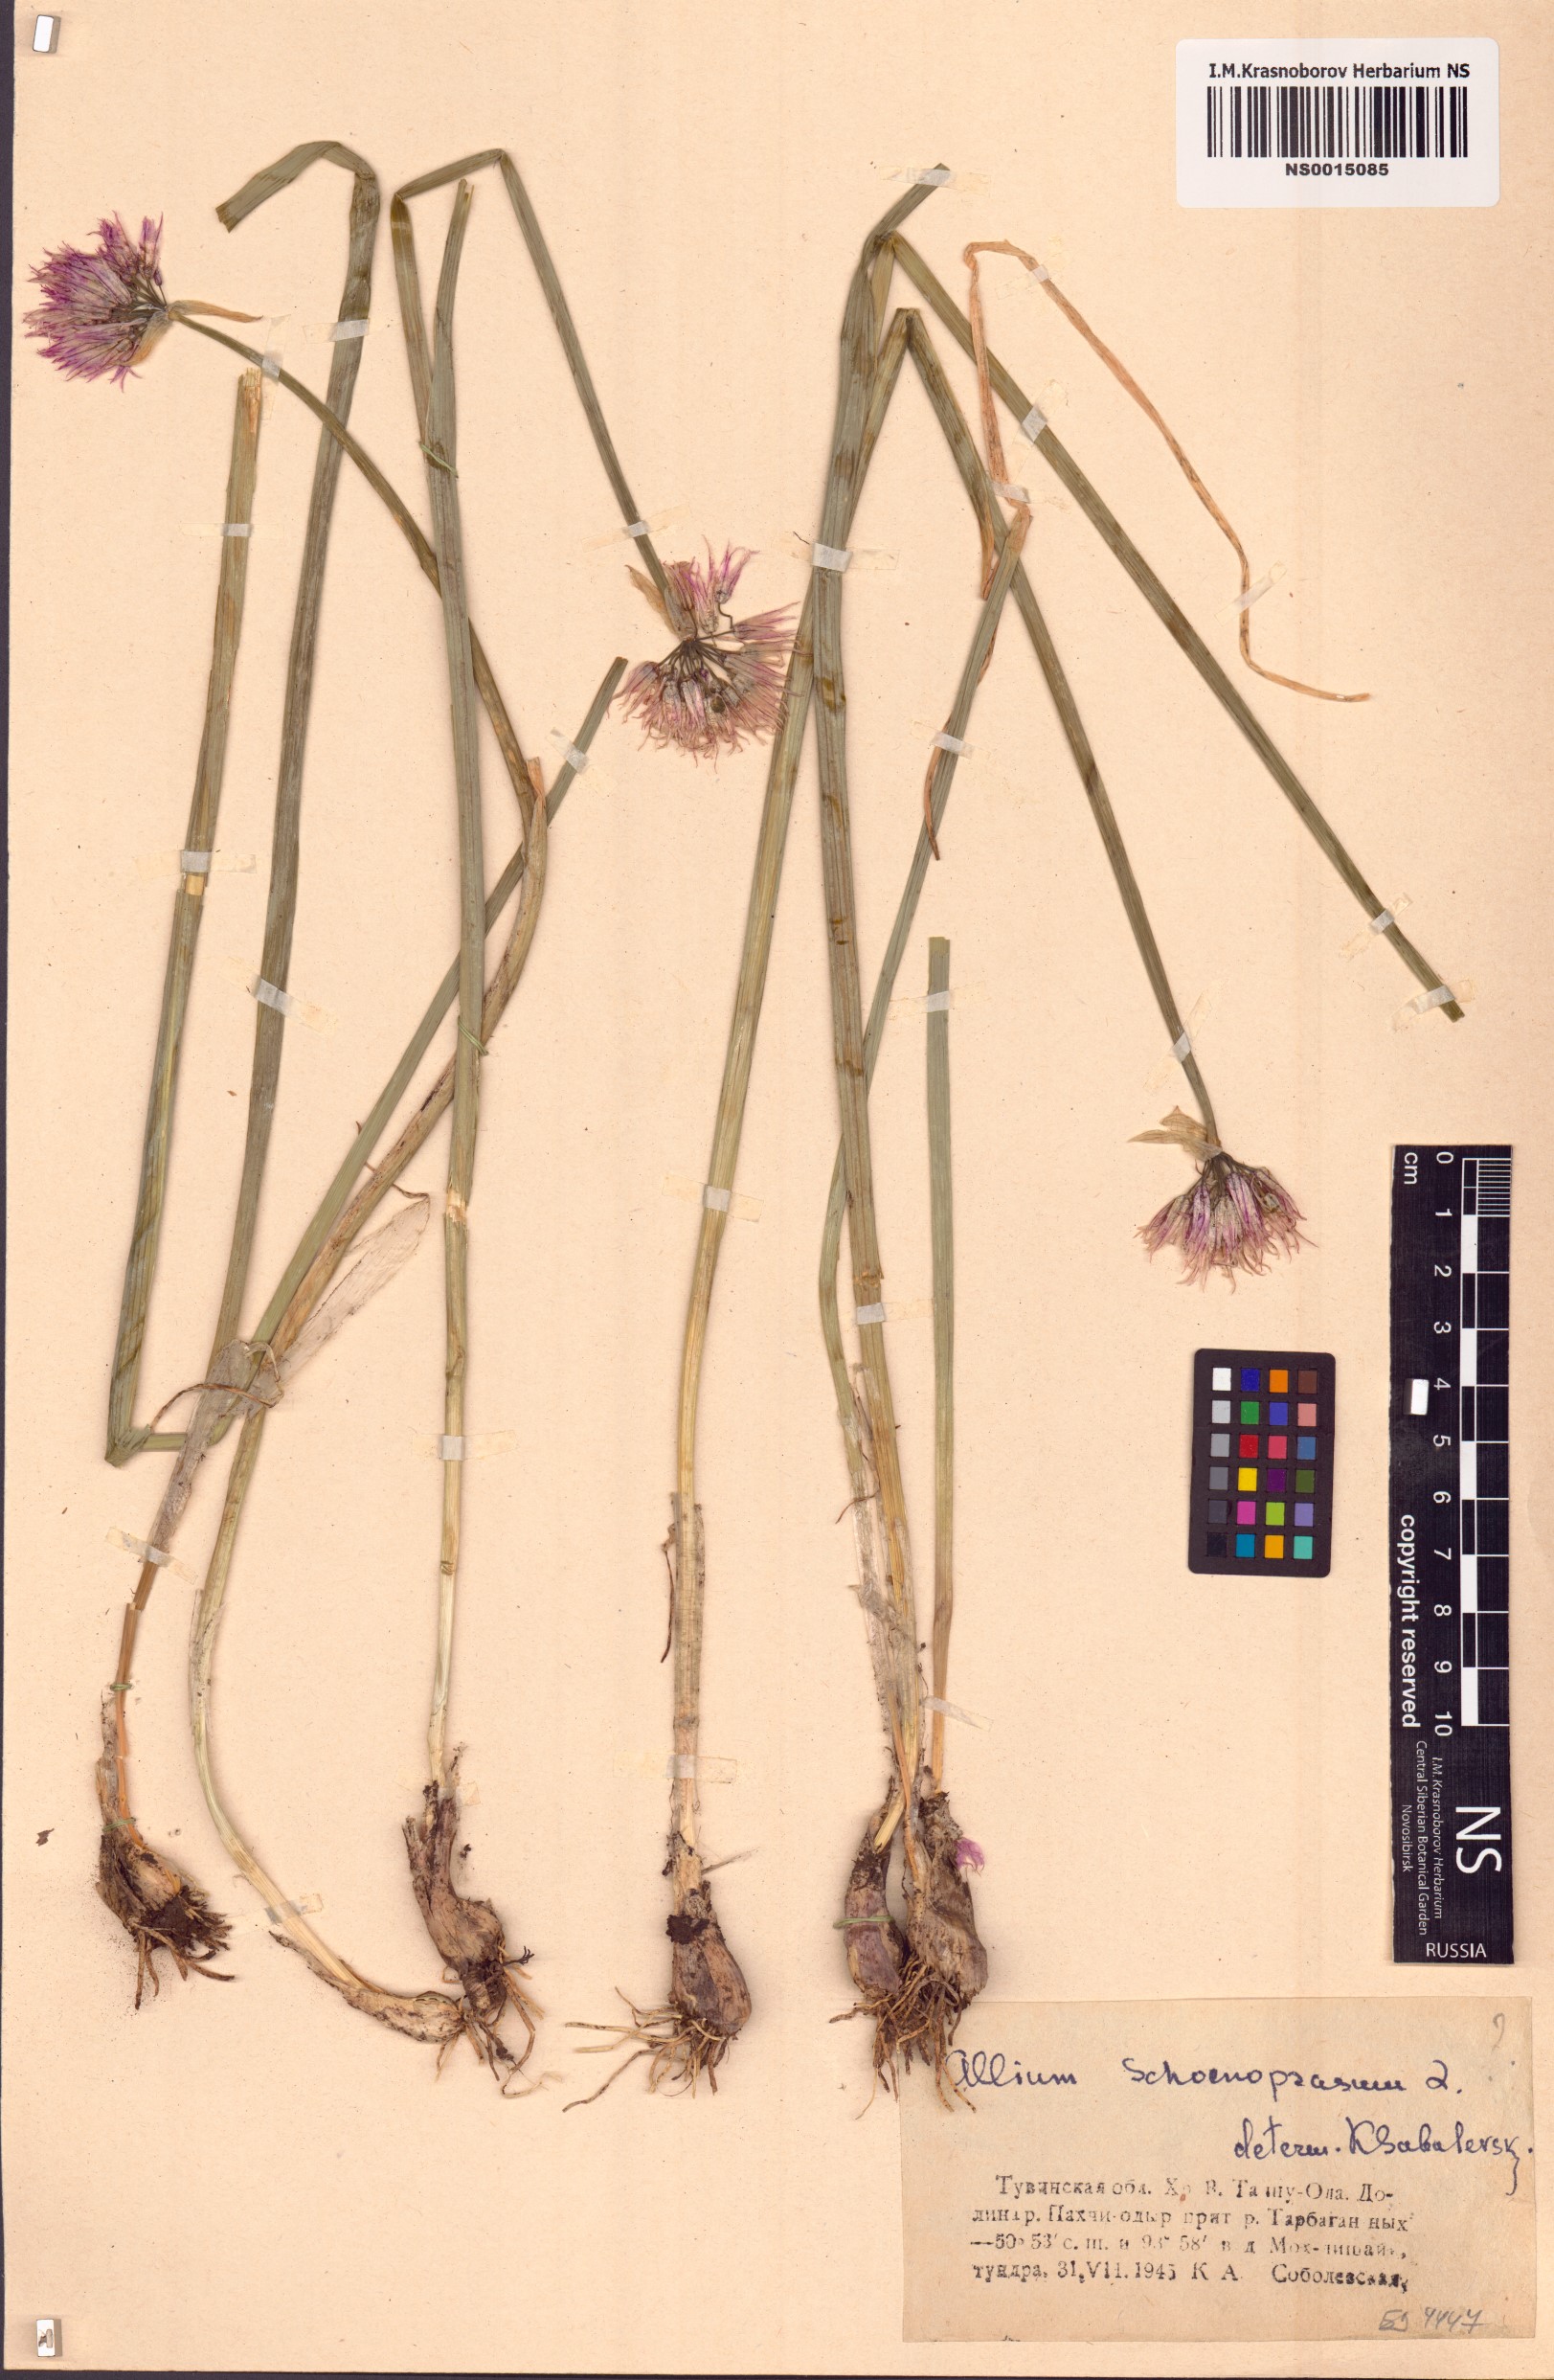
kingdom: Plantae
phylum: Tracheophyta
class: Liliopsida
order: Asparagales
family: Amaryllidaceae
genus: Allium
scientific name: Allium schoenoprasum
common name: Chives
